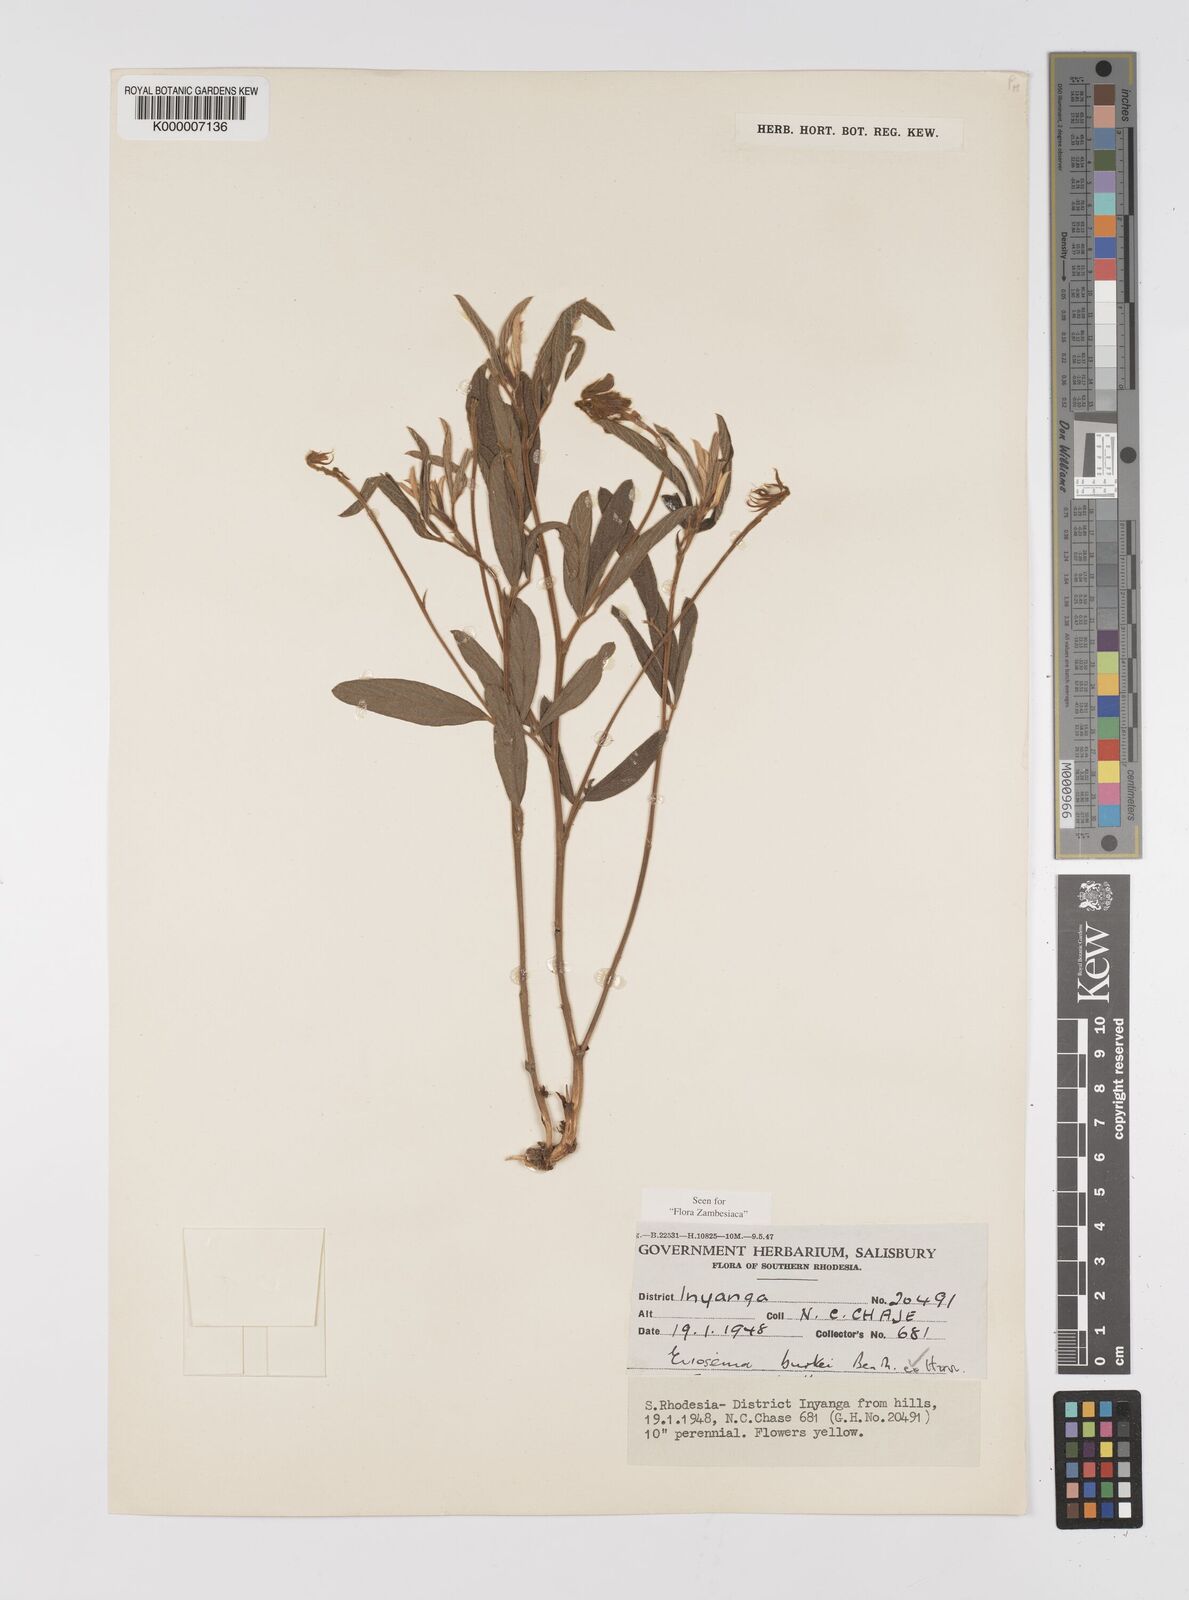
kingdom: Plantae
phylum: Tracheophyta
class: Magnoliopsida
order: Fabales
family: Fabaceae
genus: Eriosema
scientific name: Eriosema burkei
